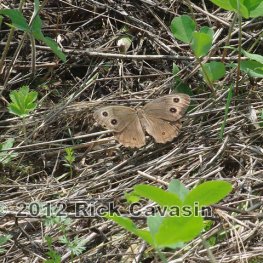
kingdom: Animalia
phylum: Arthropoda
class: Insecta
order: Lepidoptera
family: Nymphalidae
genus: Cercyonis
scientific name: Cercyonis pegala
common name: Common Wood-Nymph
